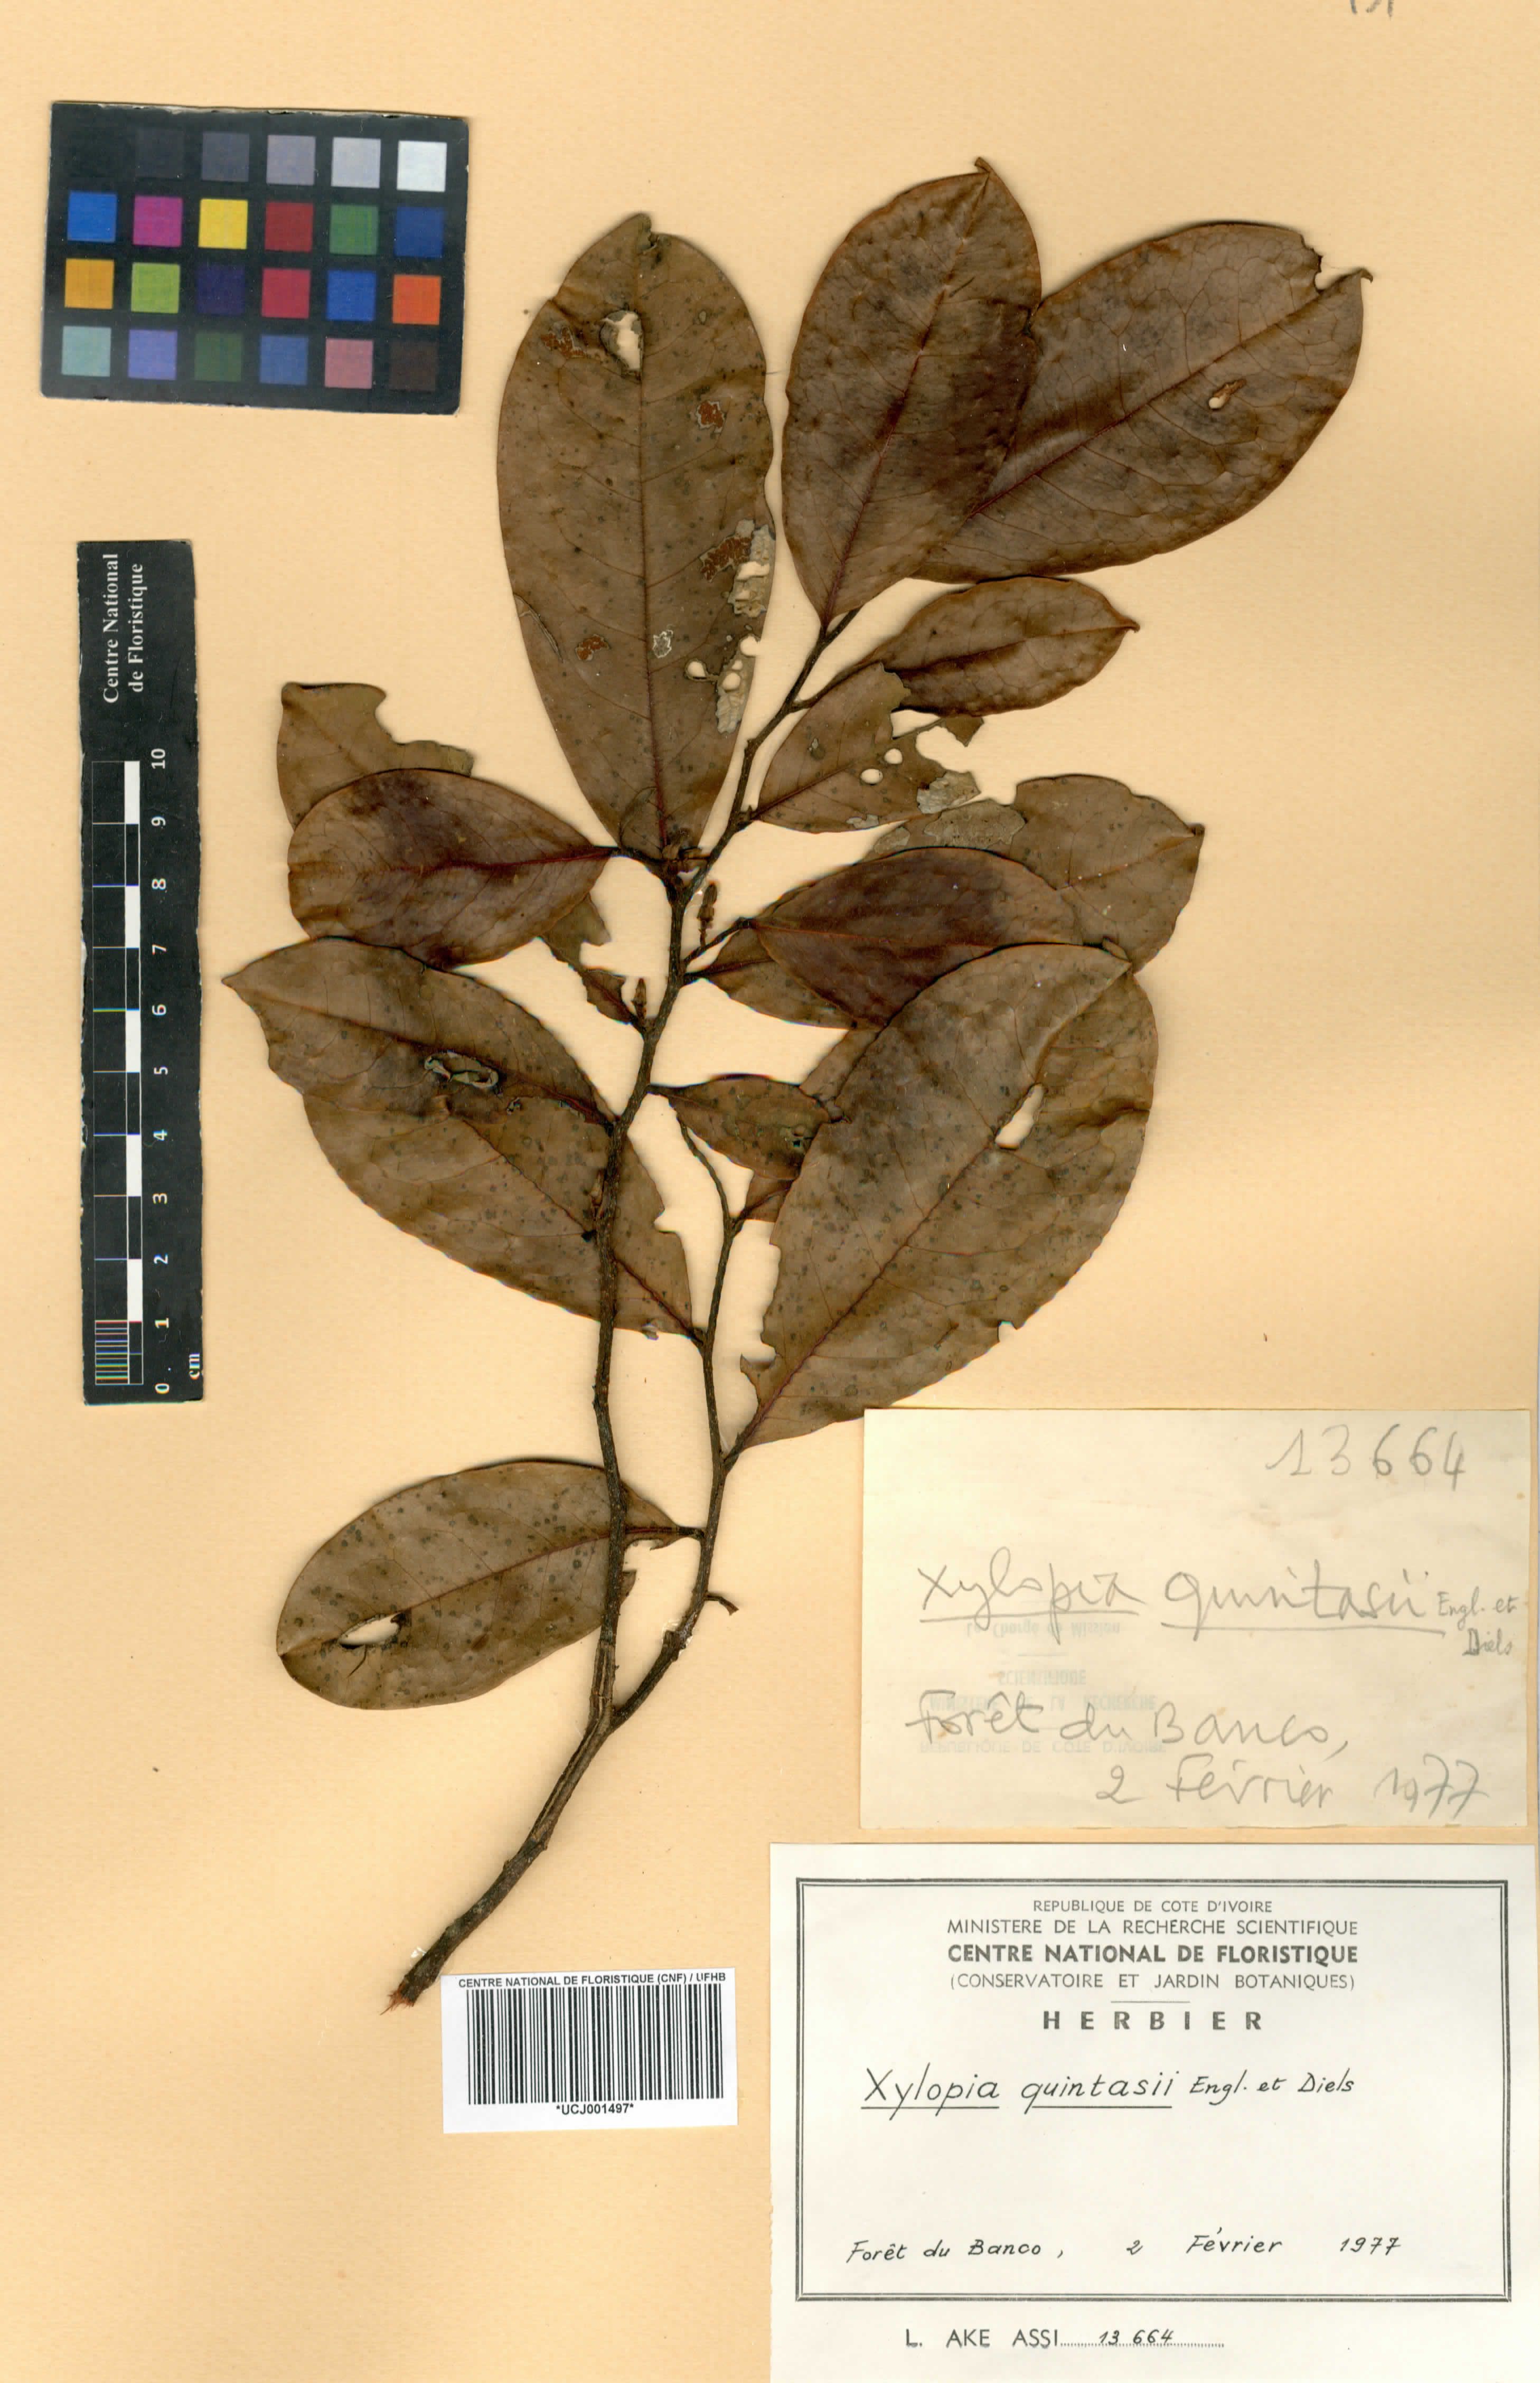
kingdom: Plantae
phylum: Tracheophyta
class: Magnoliopsida
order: Magnoliales
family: Annonaceae
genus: Xylopia
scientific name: Xylopia quintasii
